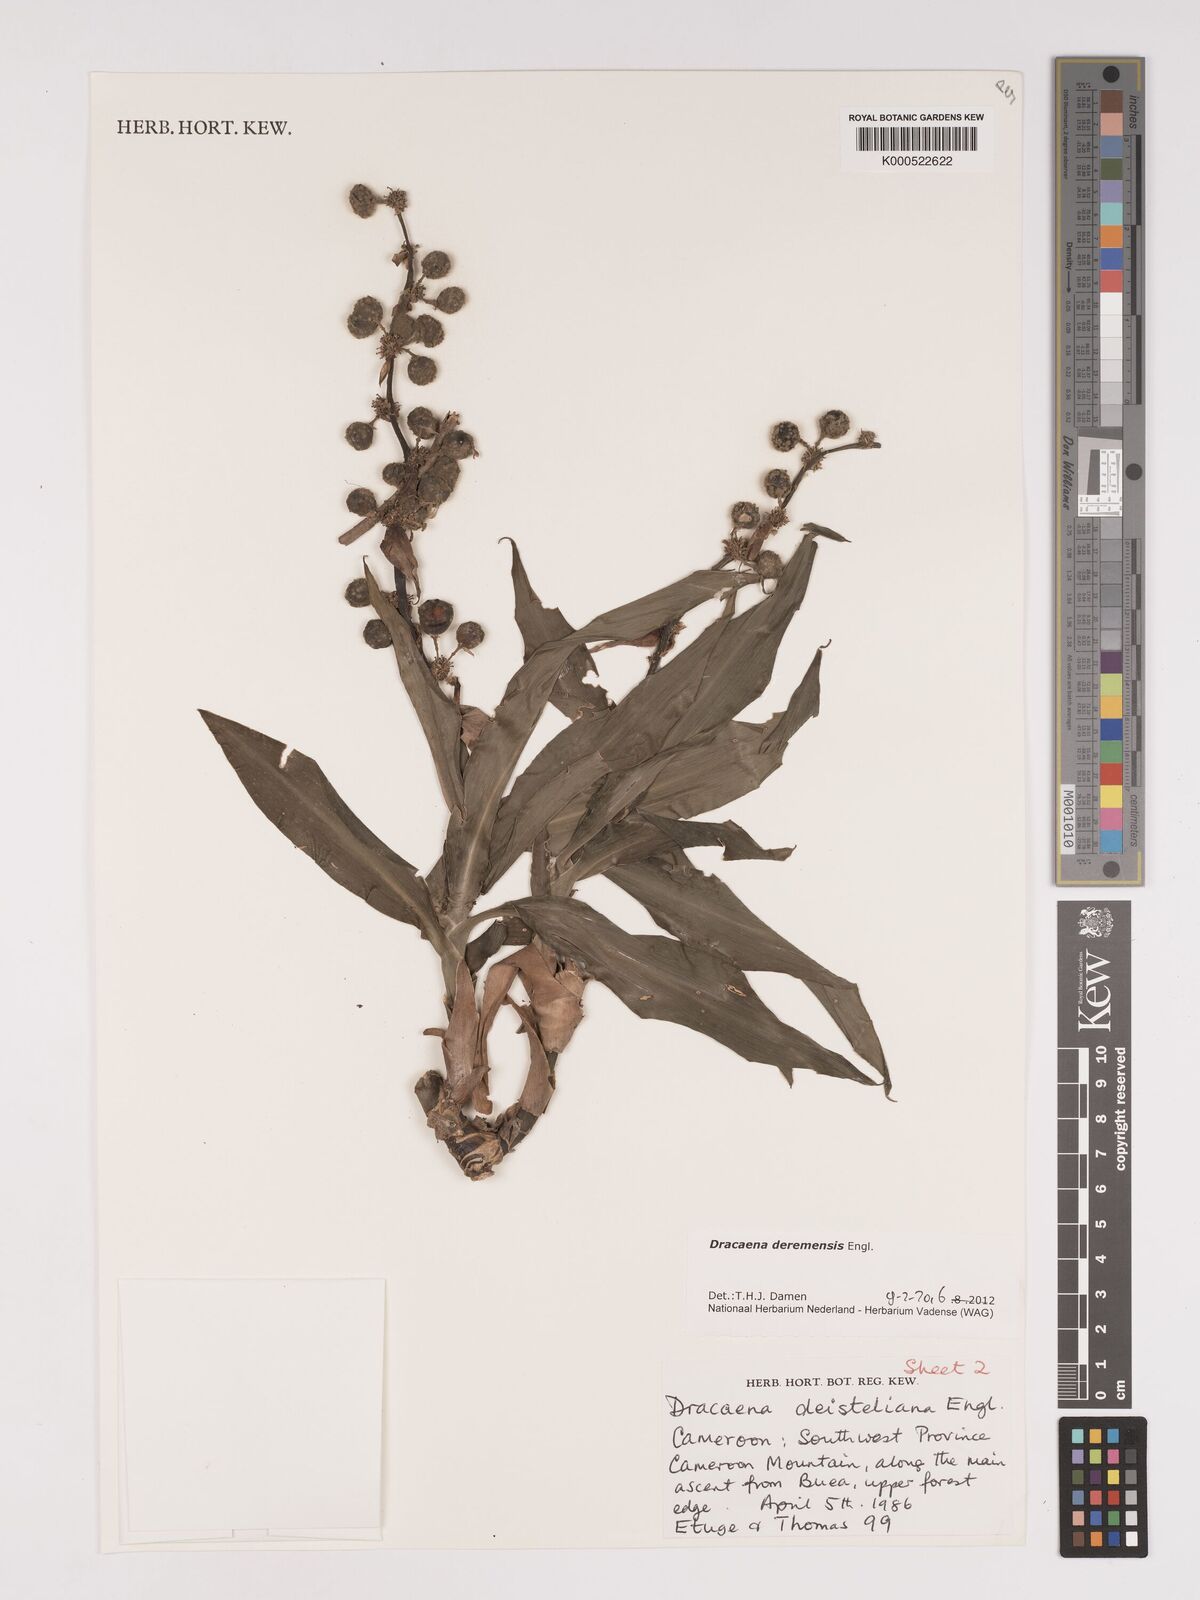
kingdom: Plantae
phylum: Tracheophyta
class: Liliopsida
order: Asparagales
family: Asparagaceae
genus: Dracaena
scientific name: Dracaena fragrans
